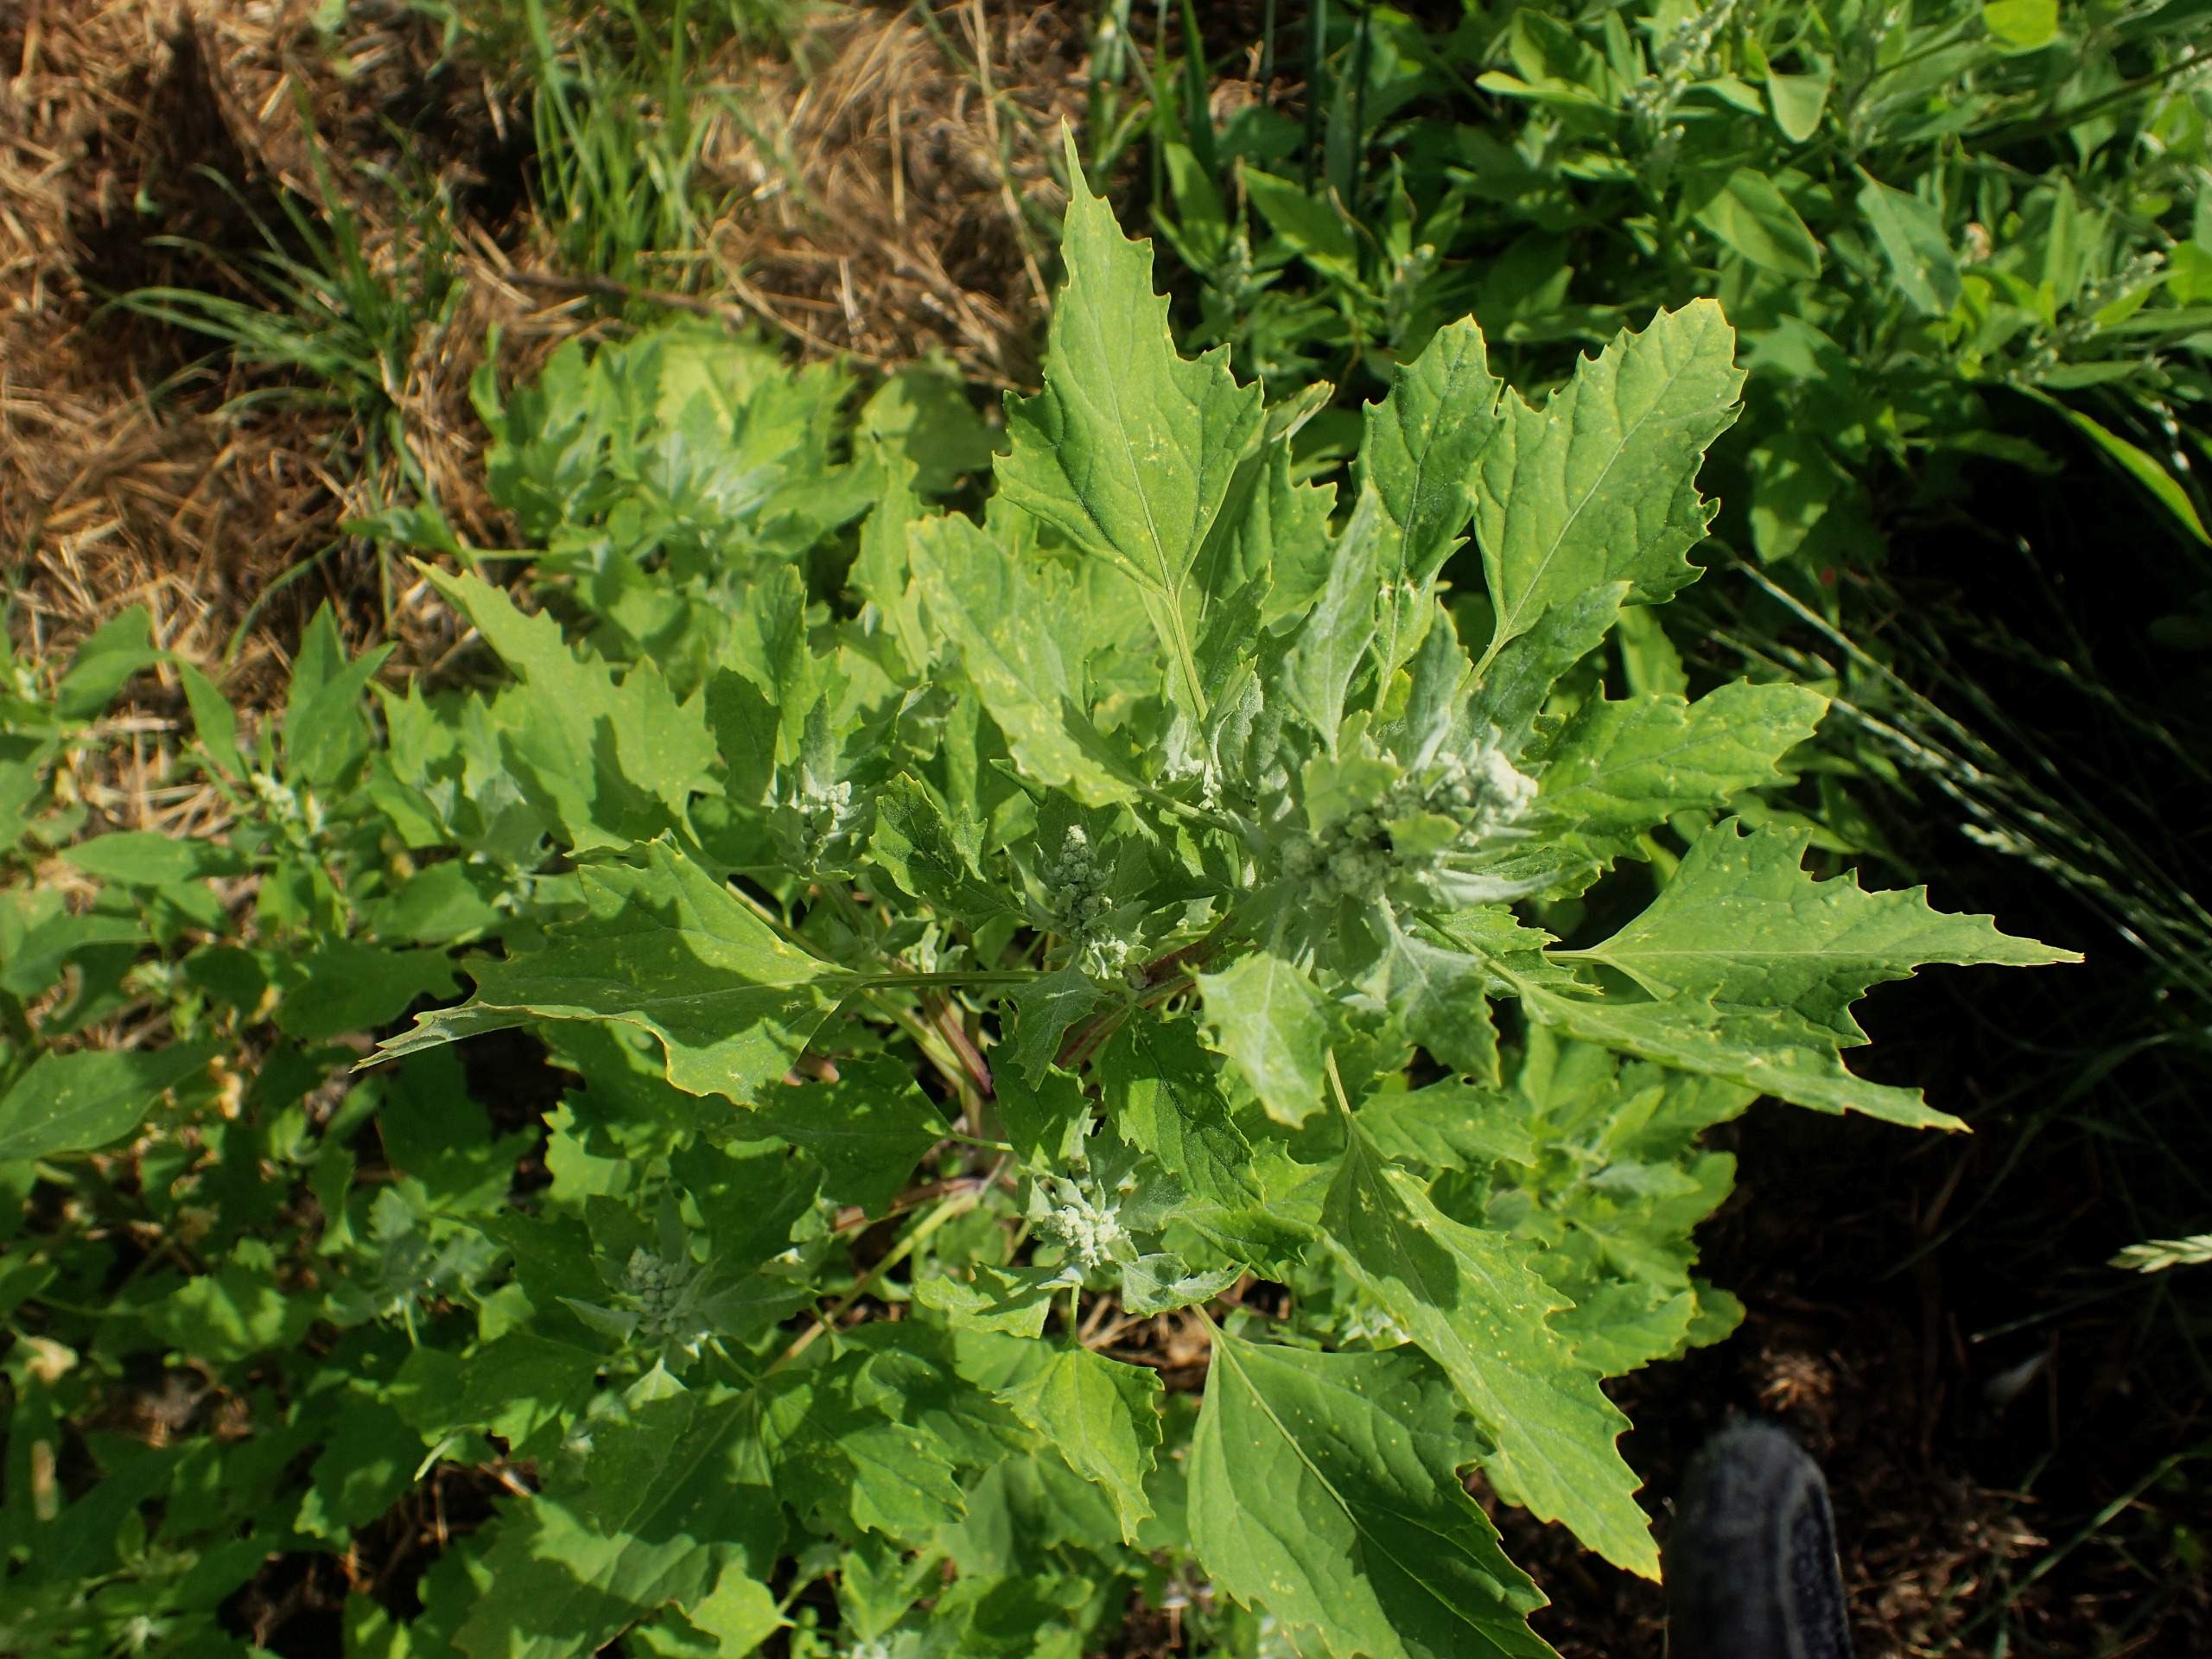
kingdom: Plantae
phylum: Tracheophyta
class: Magnoliopsida
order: Caryophyllales
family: Amaranthaceae
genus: Chenopodium
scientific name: Chenopodium album
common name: Hvidmelet gåsefod
